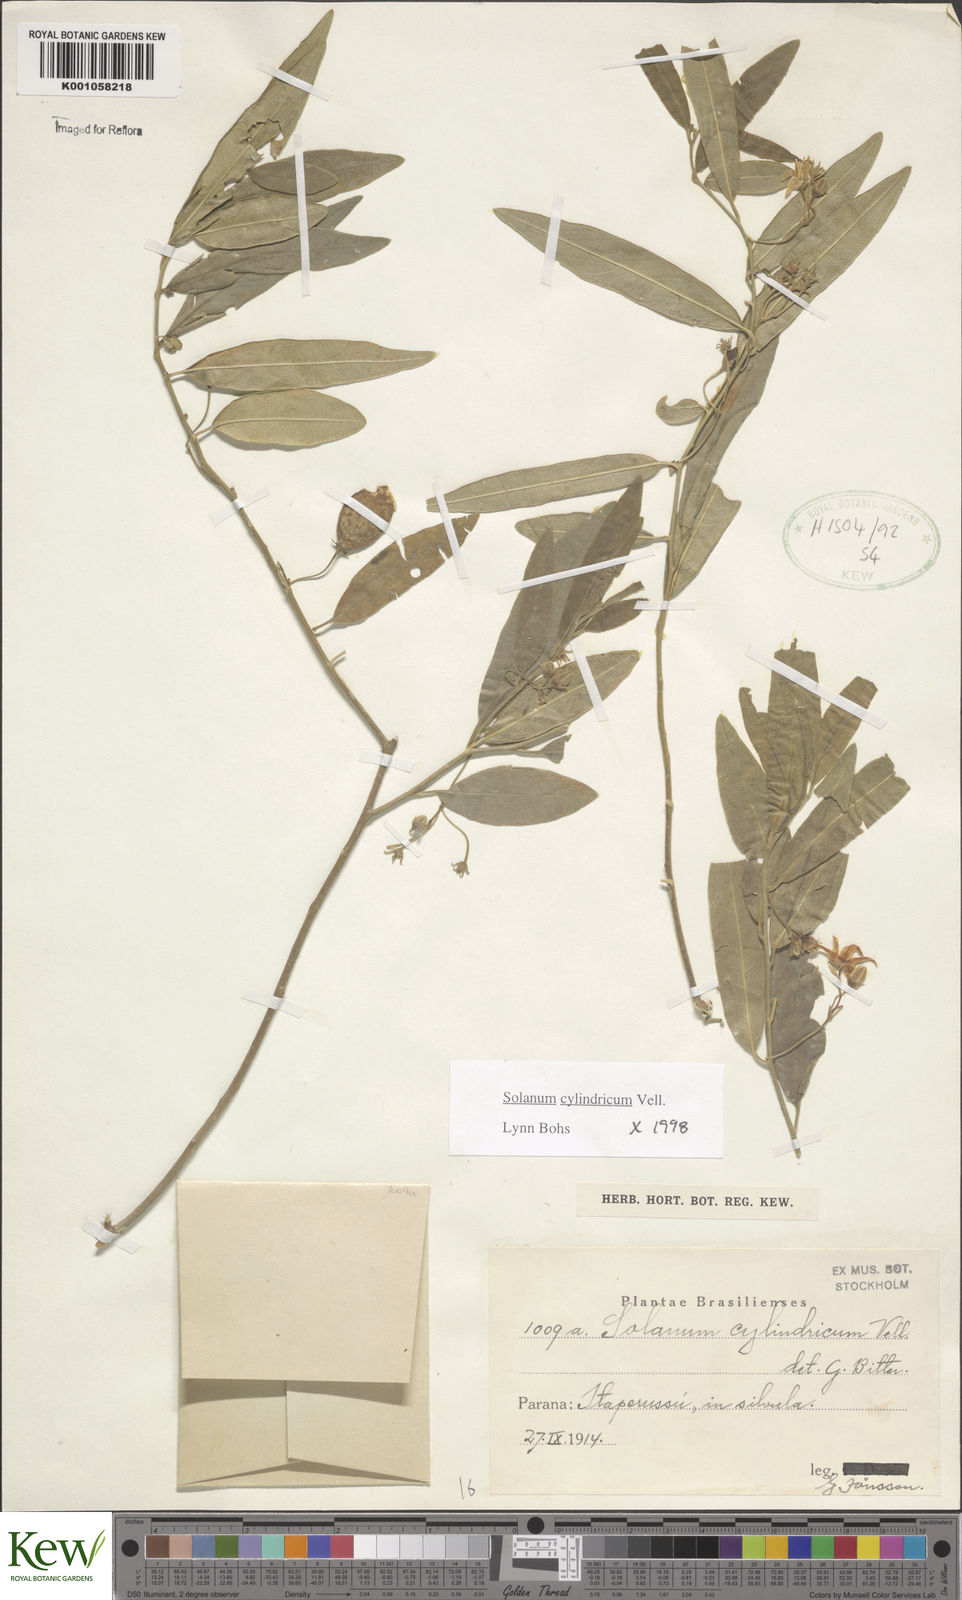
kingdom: Plantae
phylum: Tracheophyta
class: Magnoliopsida
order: Solanales
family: Solanaceae
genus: Solanum
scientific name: Solanum cylindricum
